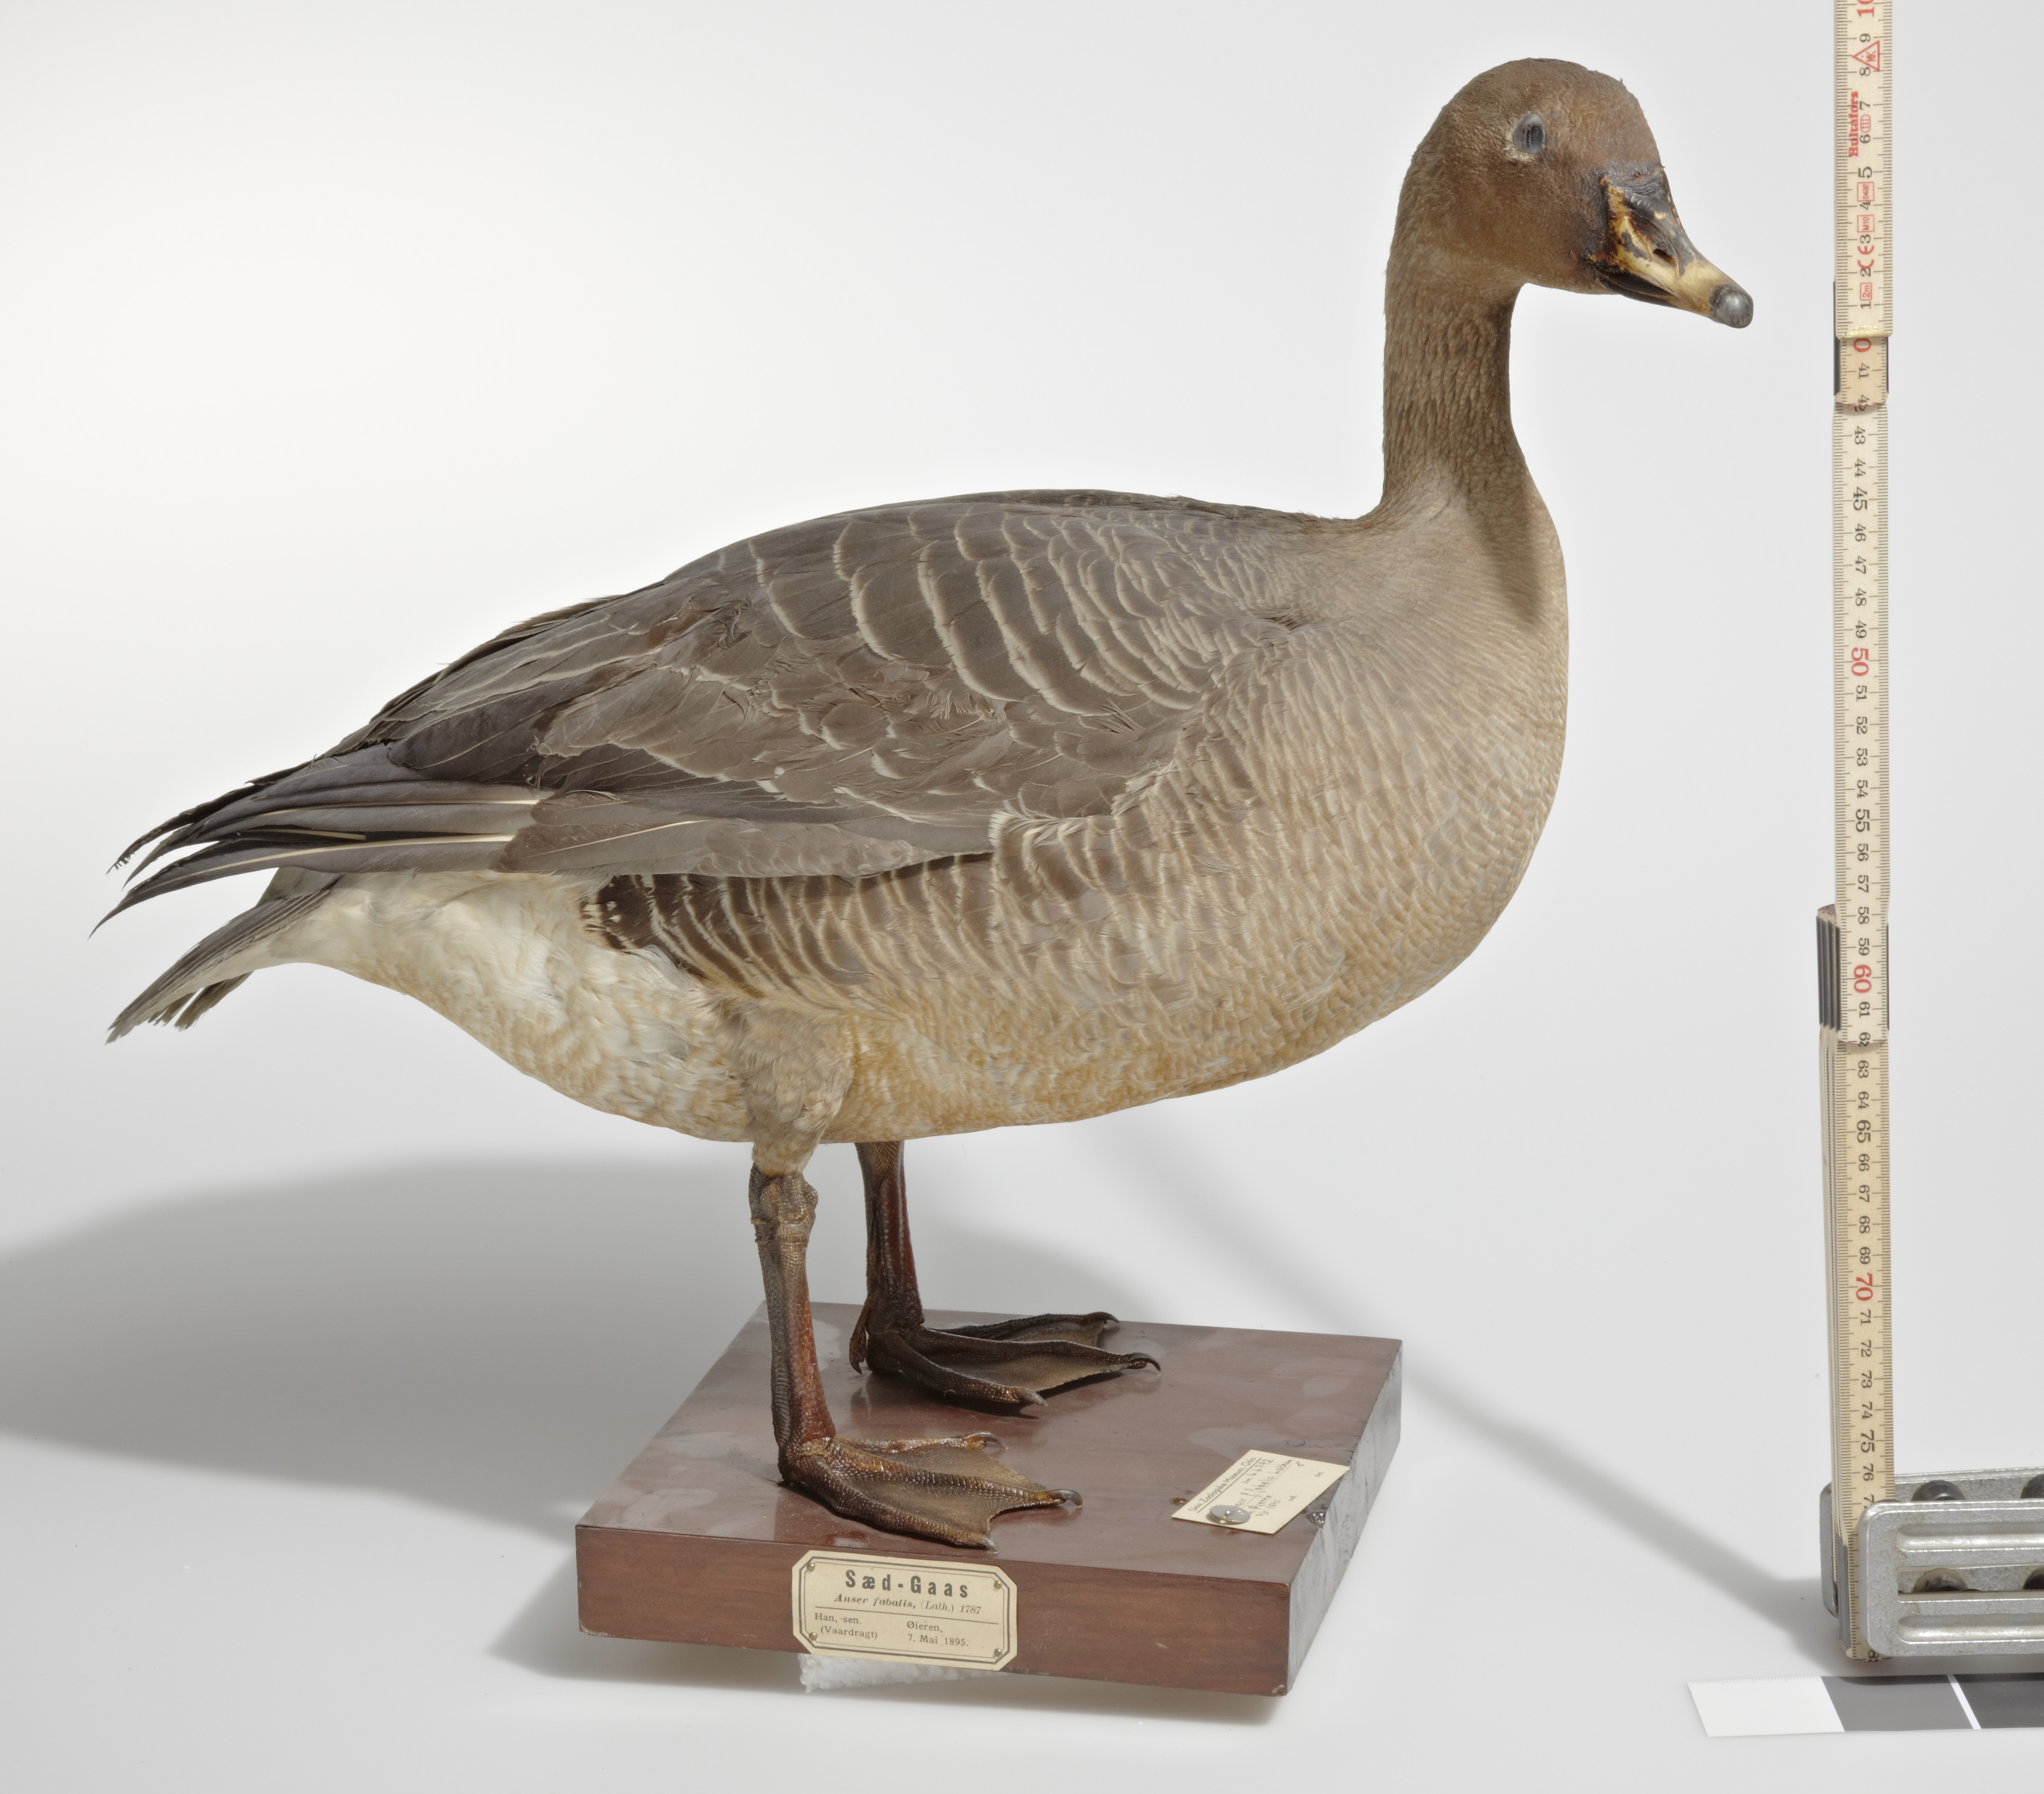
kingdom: Animalia
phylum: Chordata
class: Aves
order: Anseriformes
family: Anatidae
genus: Anser
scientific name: Anser fabalis
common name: Bean goose
